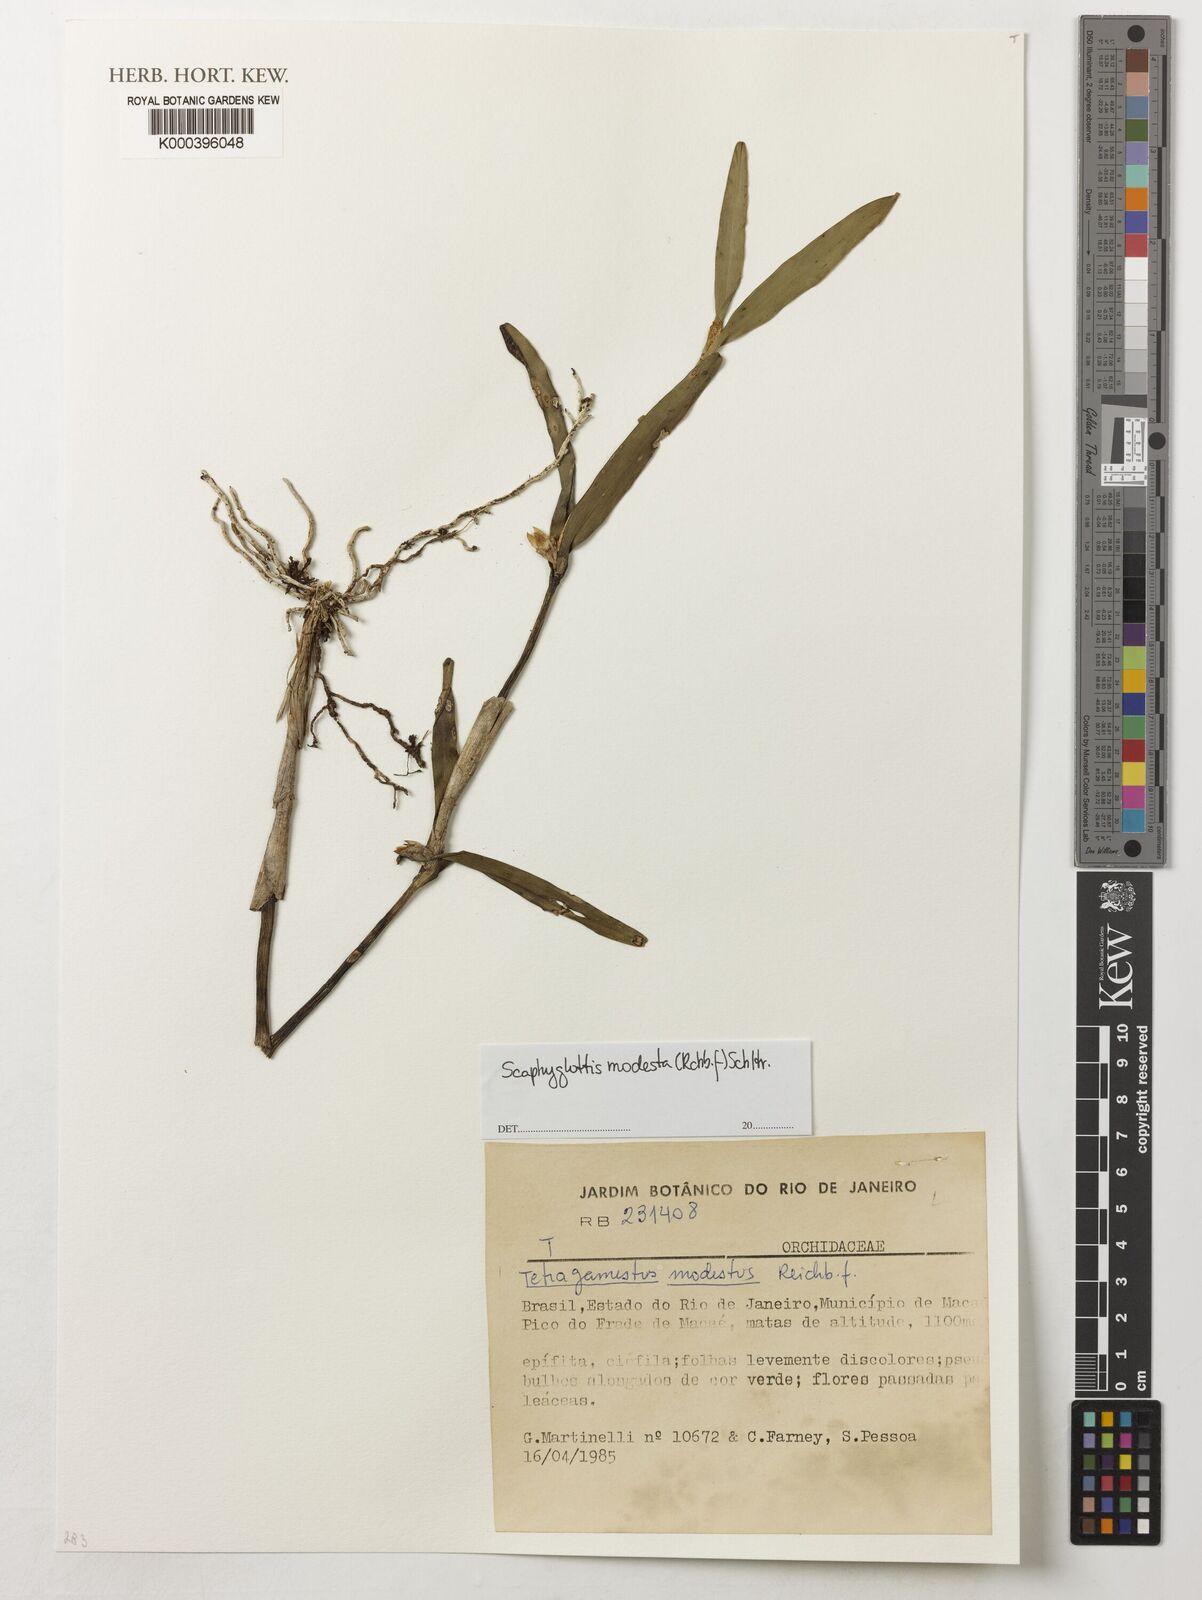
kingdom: Plantae
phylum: Tracheophyta
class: Liliopsida
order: Asparagales
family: Orchidaceae
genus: Scaphyglottis
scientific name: Scaphyglottis modesta
